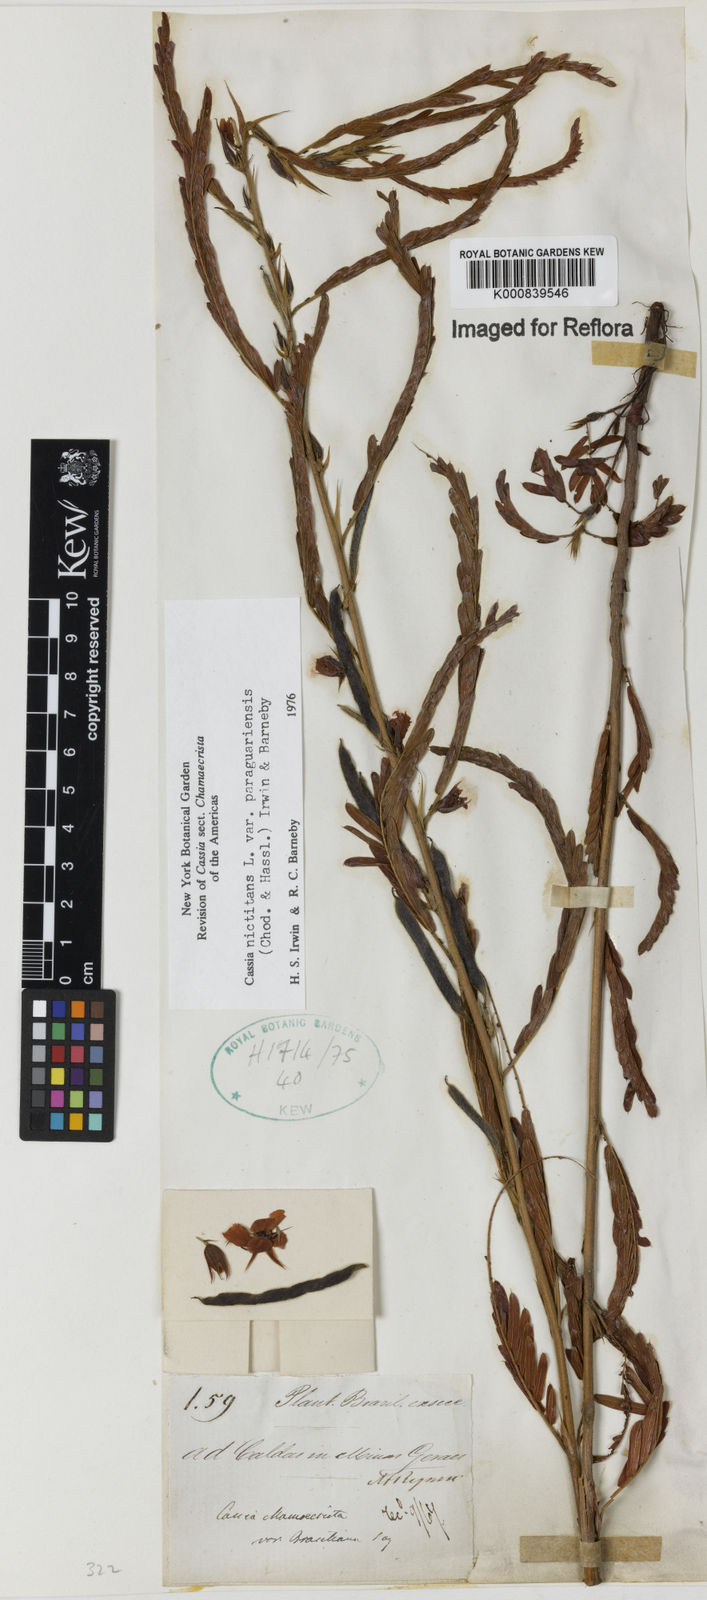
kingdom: Plantae
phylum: Tracheophyta
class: Magnoliopsida
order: Fabales
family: Fabaceae
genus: Chamaecrista
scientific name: Chamaecrista nictitans
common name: Sensitive cassia
